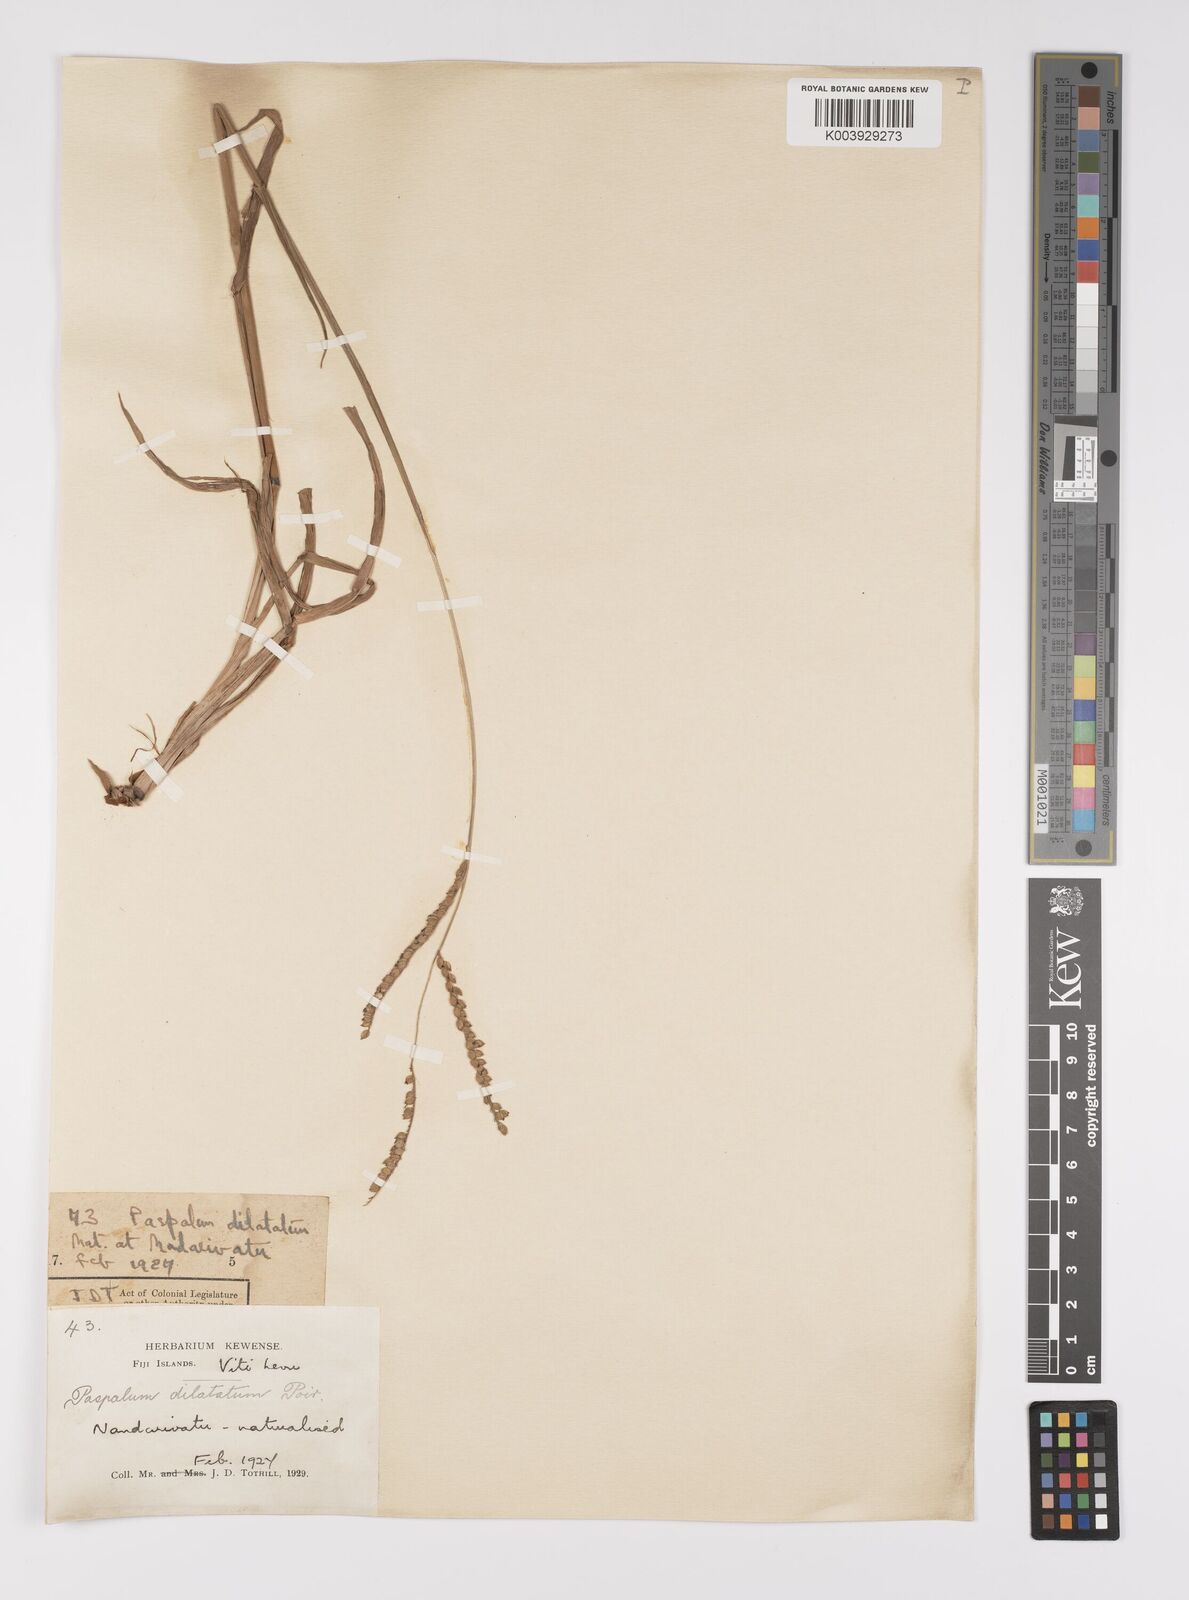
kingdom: Plantae
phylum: Tracheophyta
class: Liliopsida
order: Poales
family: Poaceae
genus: Paspalum
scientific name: Paspalum dilatatum
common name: Dallisgrass
